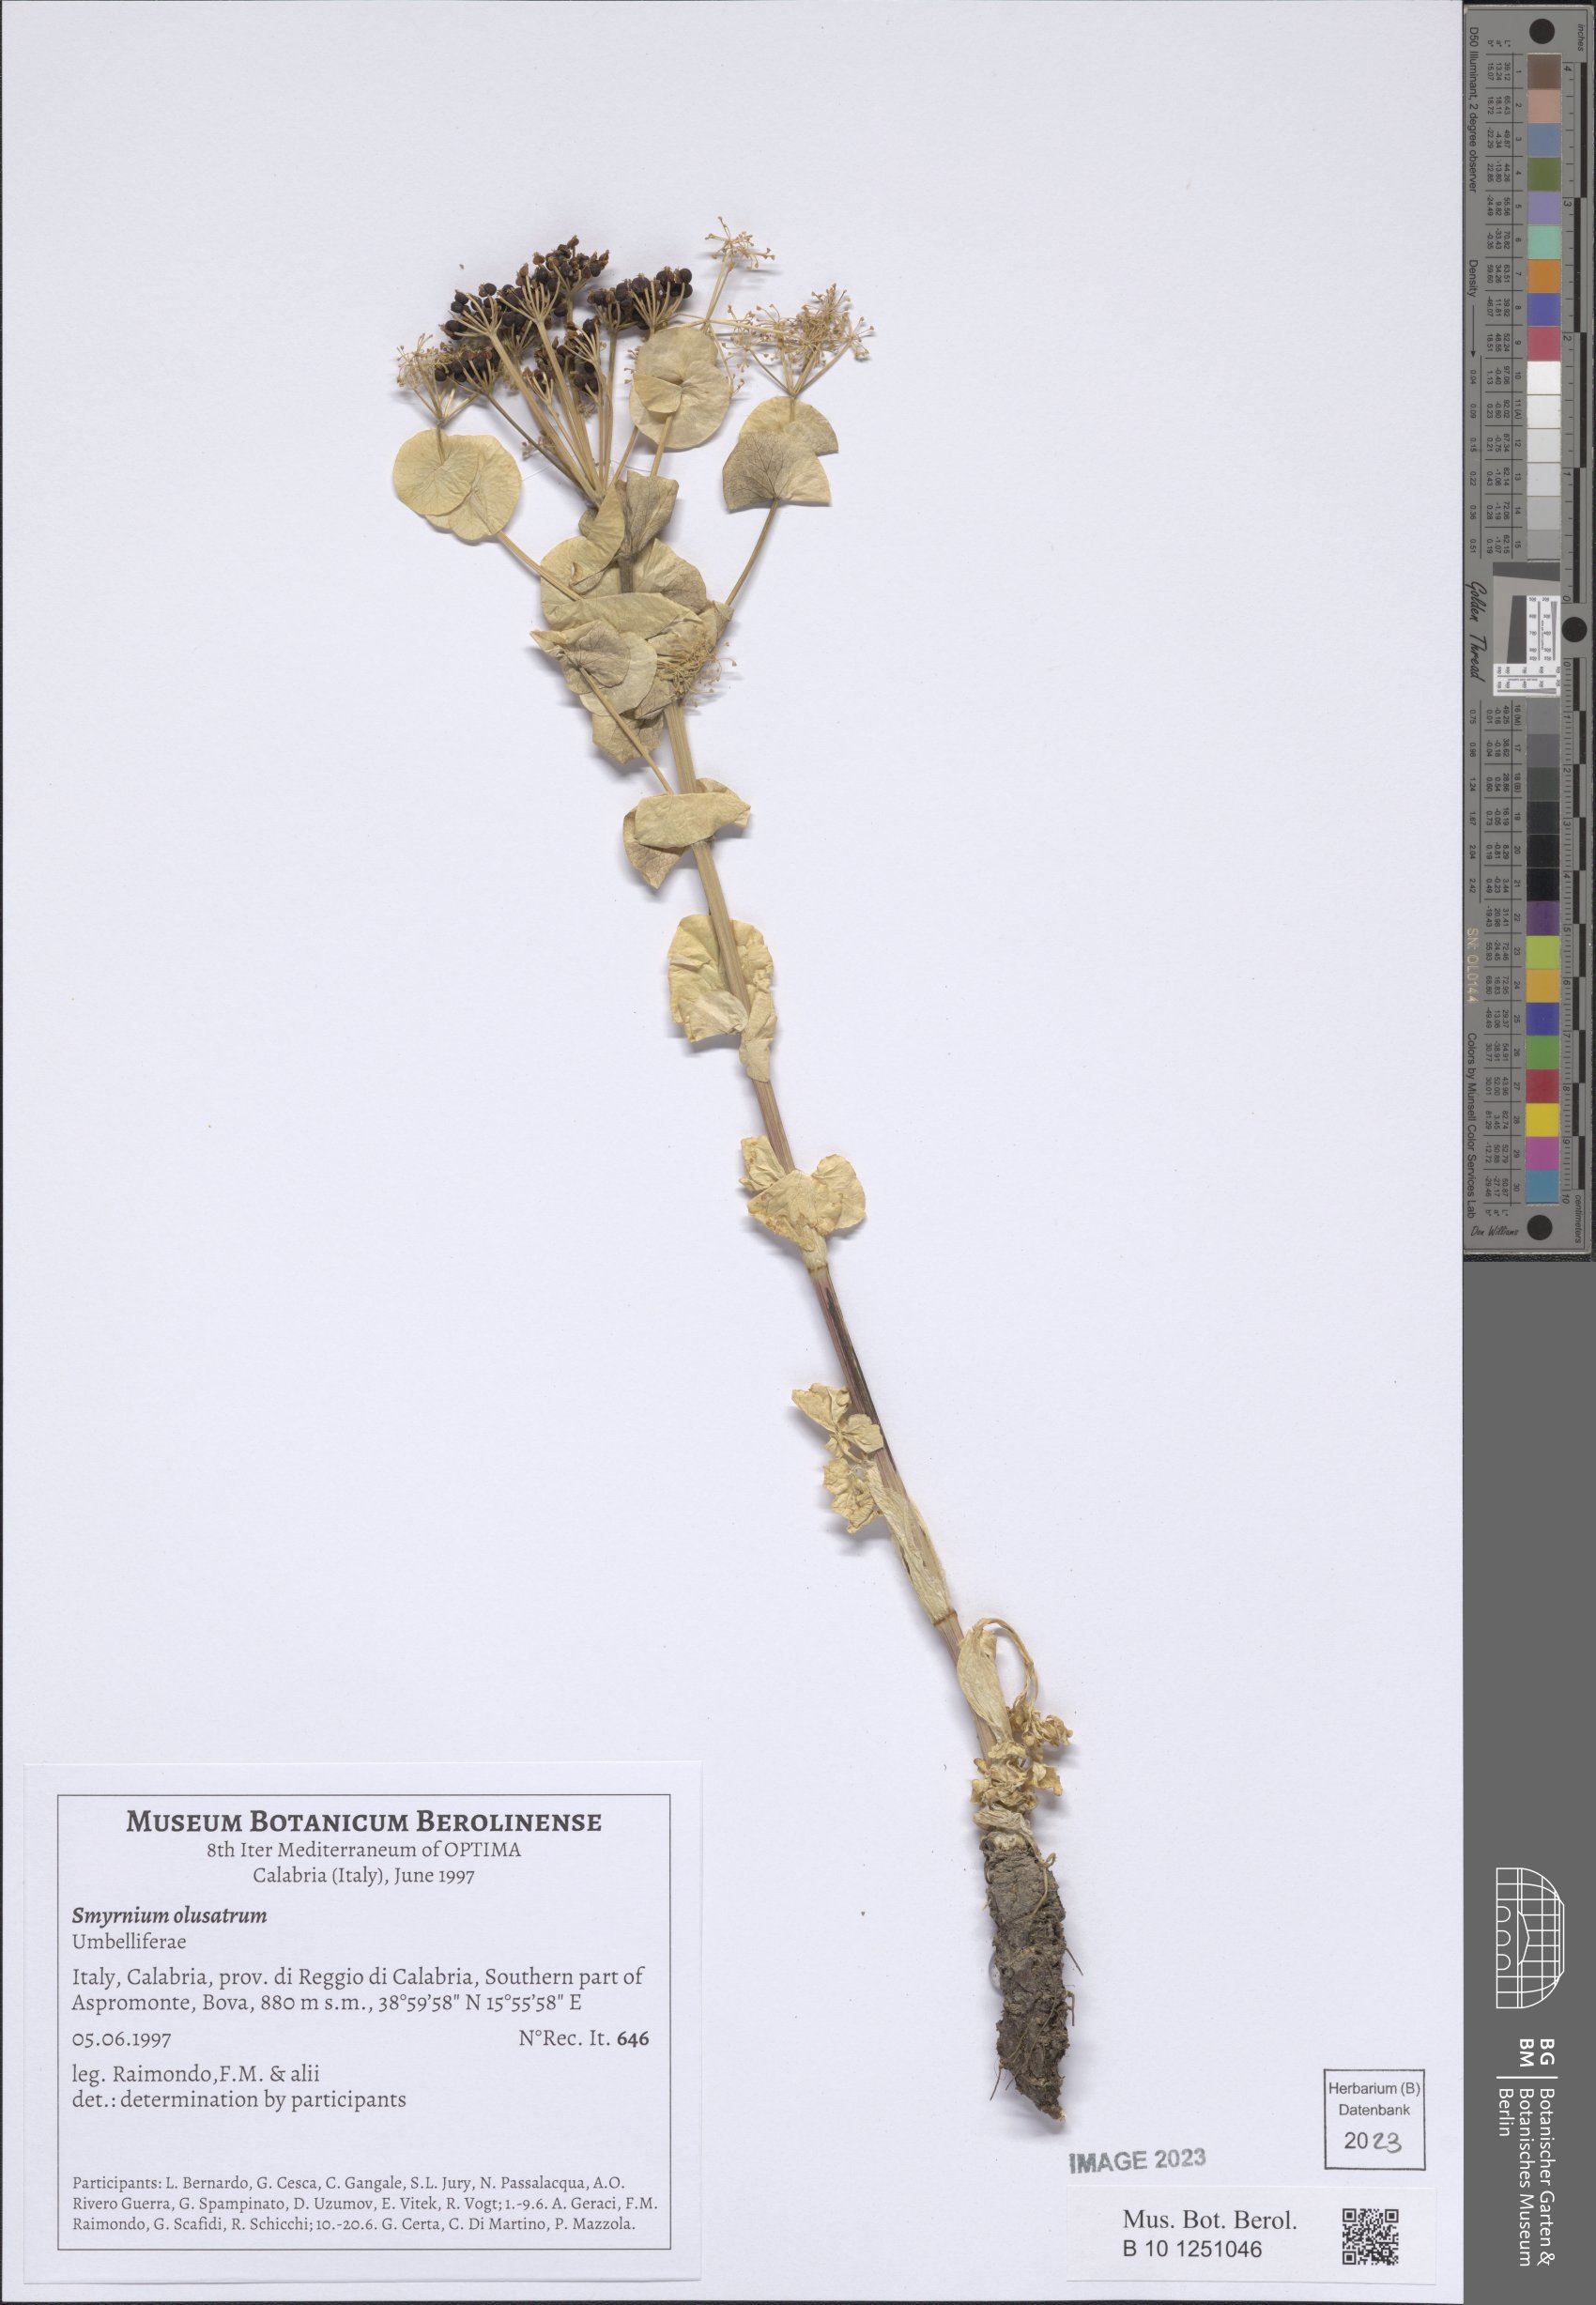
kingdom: Plantae
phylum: Tracheophyta
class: Magnoliopsida
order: Apiales
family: Apiaceae
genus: Smyrnium
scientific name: Smyrnium olusatrum
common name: Alexanders
